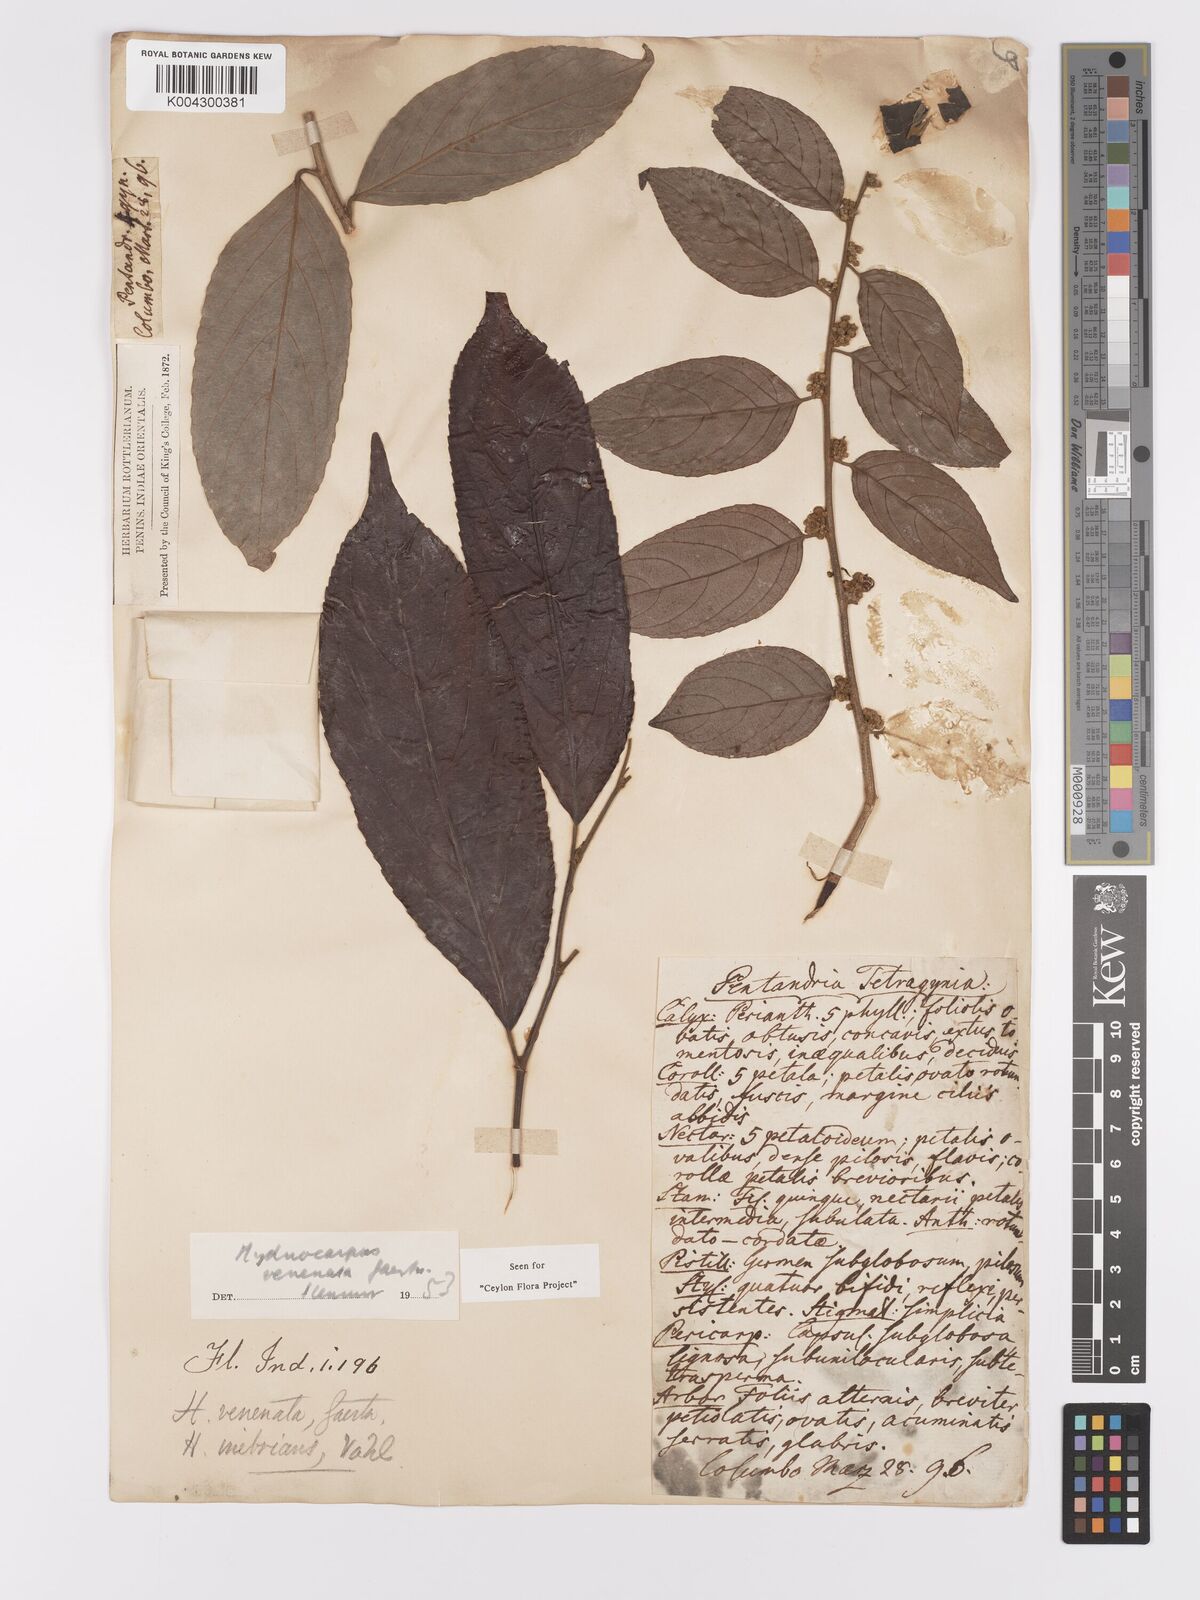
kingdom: Plantae
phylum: Tracheophyta
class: Magnoliopsida
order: Malpighiales
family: Achariaceae
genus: Hydnocarpus
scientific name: Hydnocarpus venenatus
